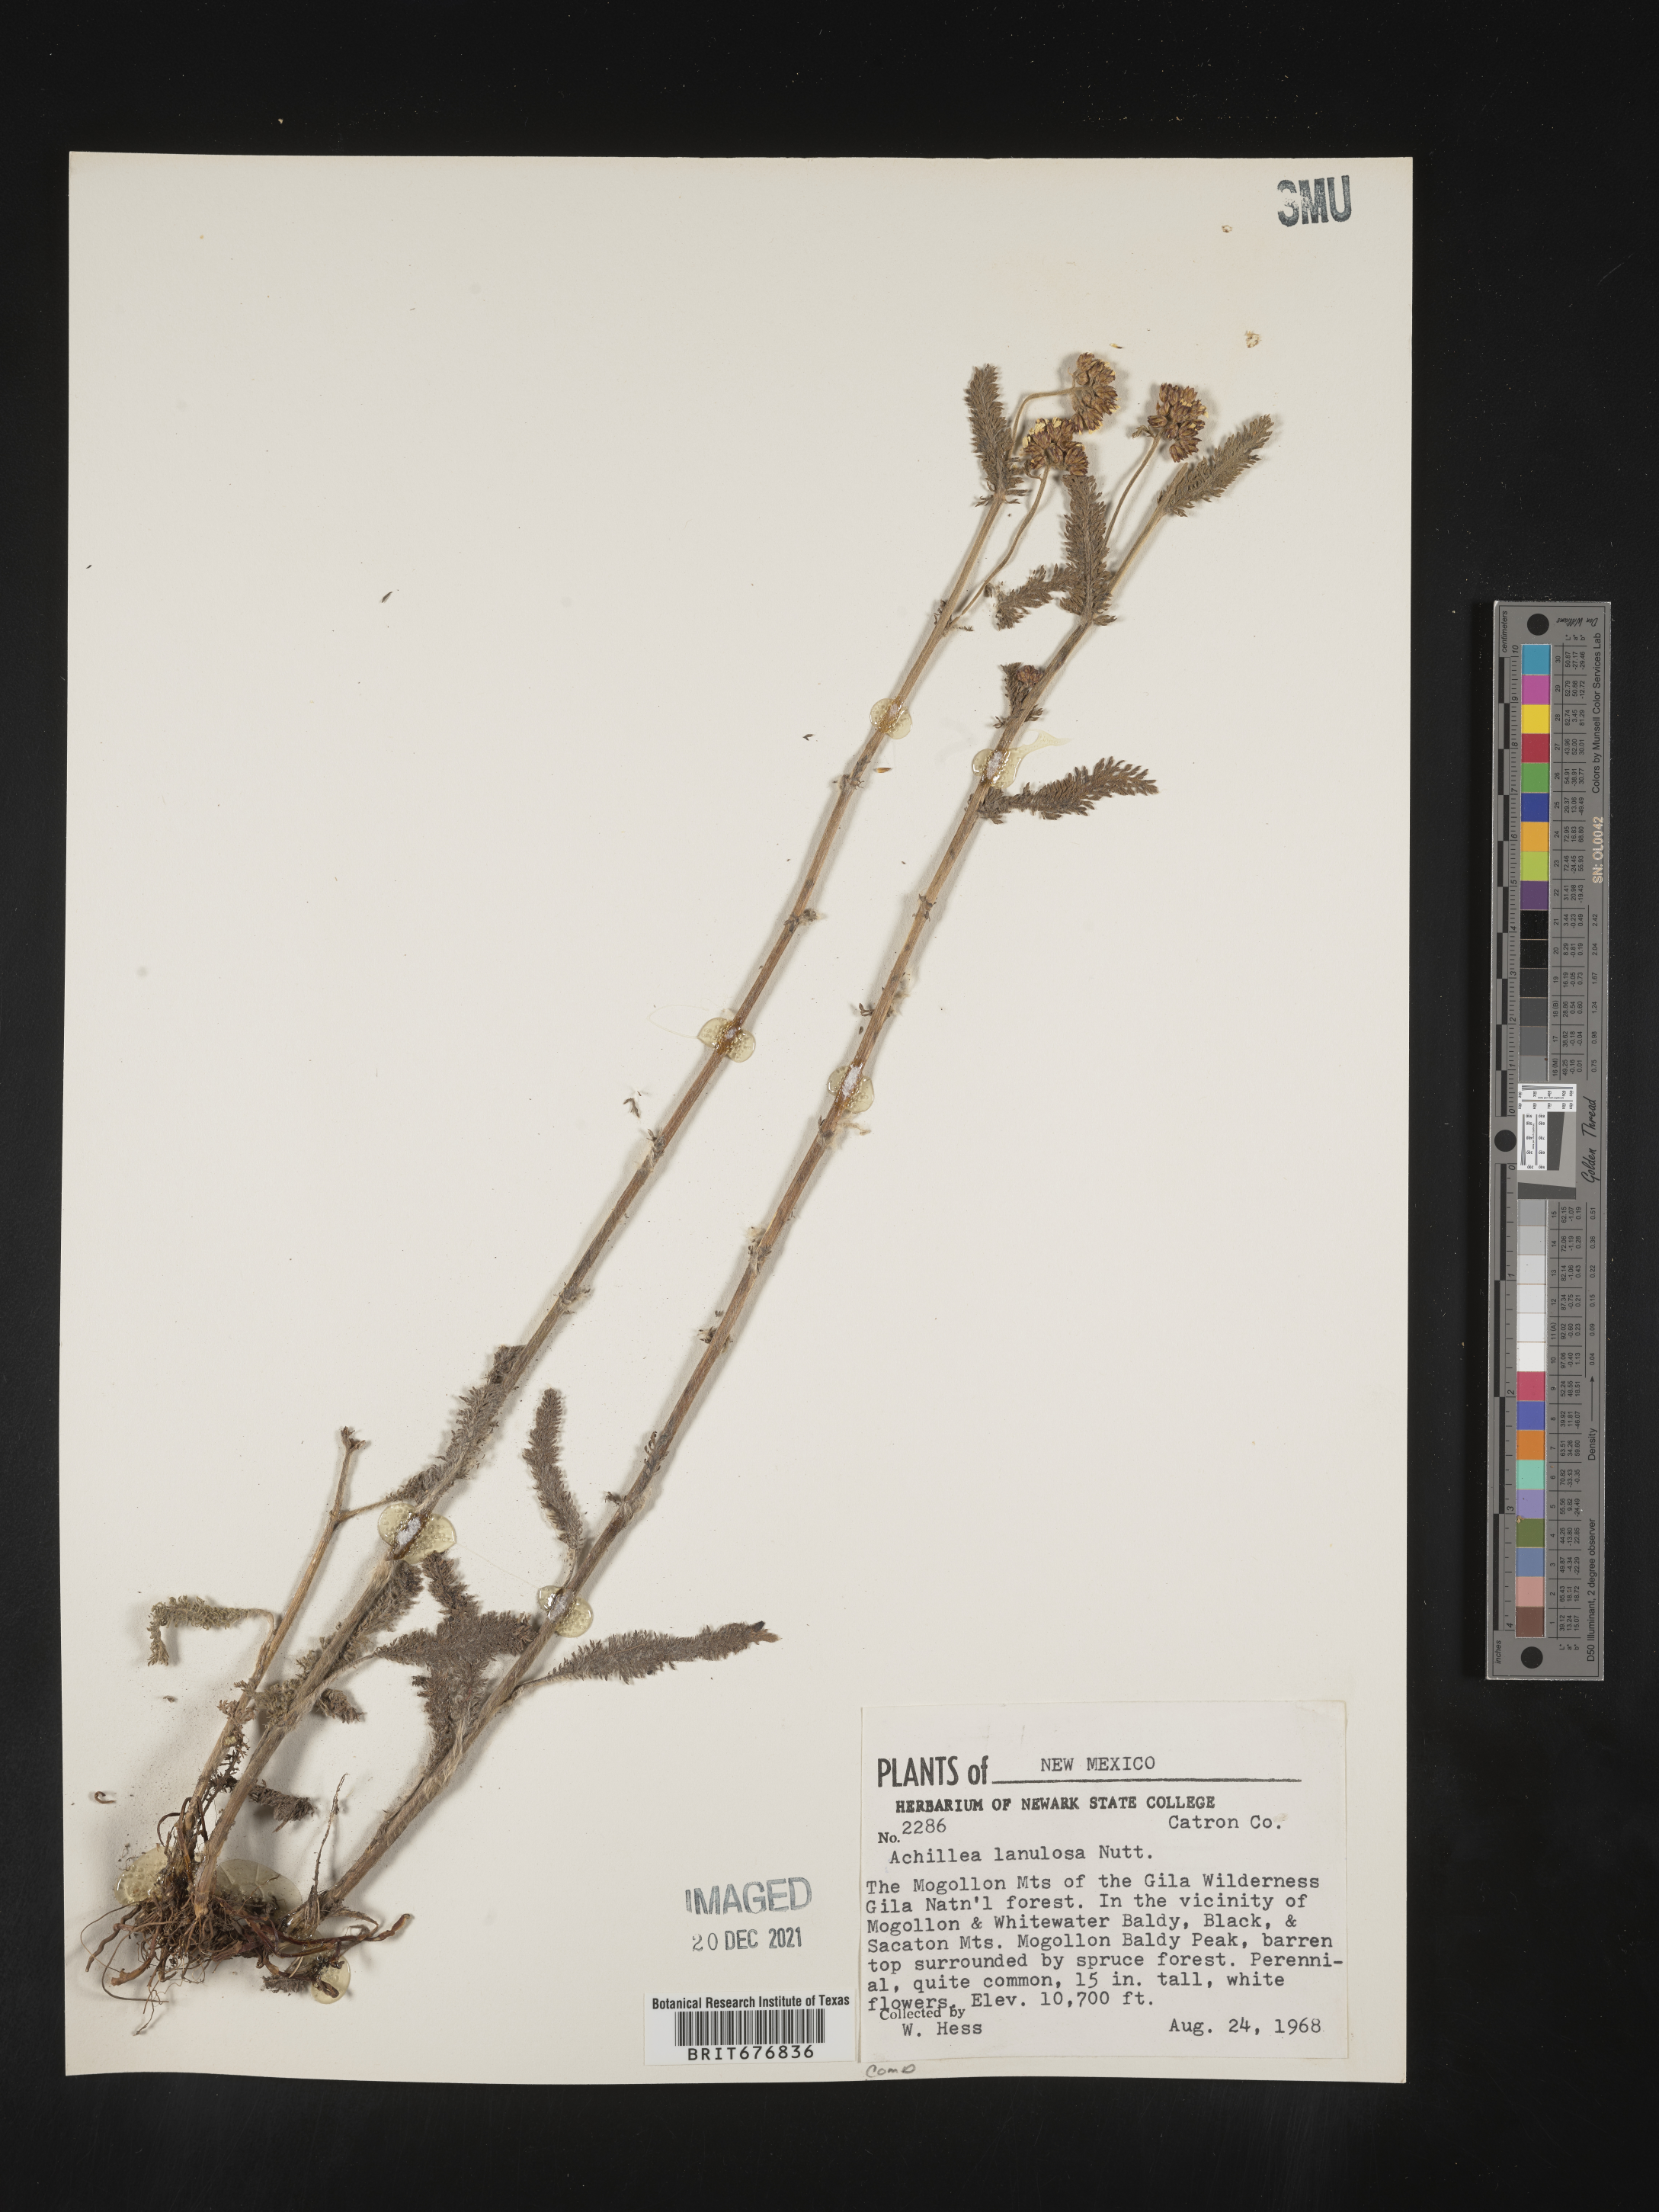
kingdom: Plantae
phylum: Tracheophyta
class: Magnoliopsida
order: Asterales
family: Asteraceae
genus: Achillea
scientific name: Achillea millefolium
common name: Yarrow
